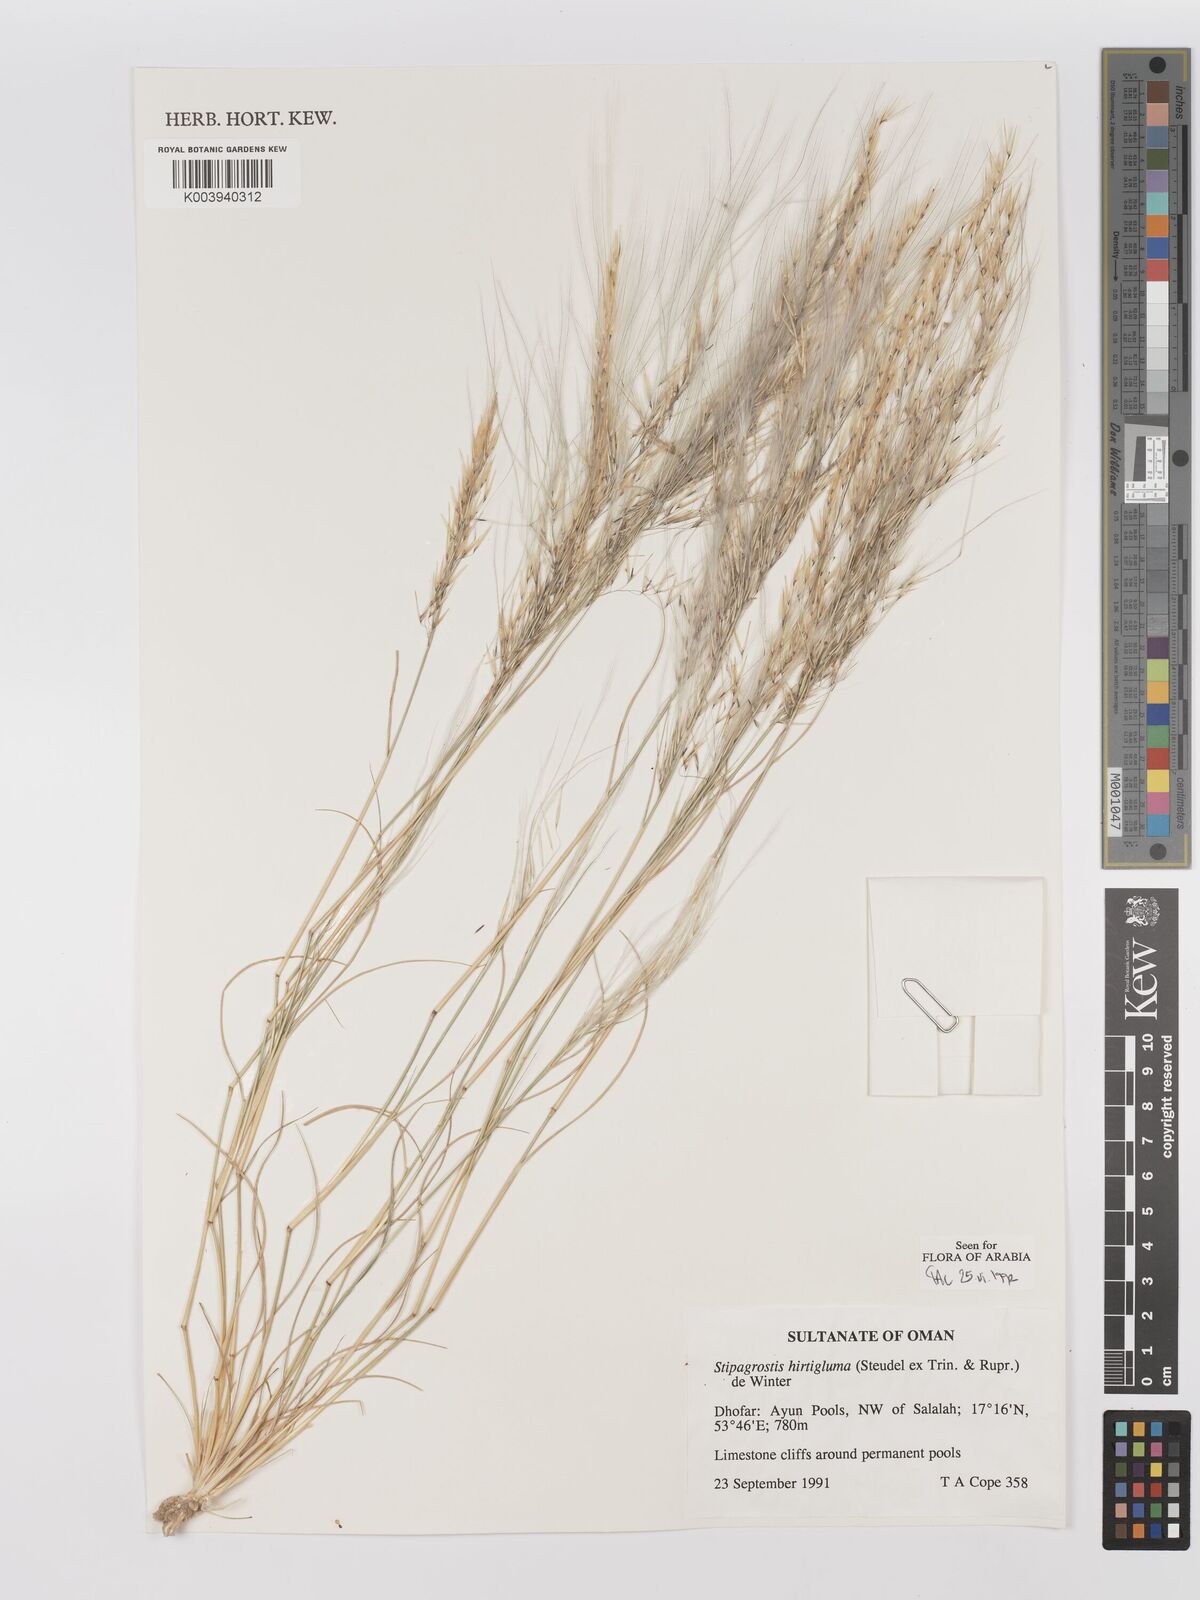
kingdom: Plantae
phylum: Tracheophyta
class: Liliopsida
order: Poales
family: Poaceae
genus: Stipagrostis
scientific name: Stipagrostis hirtigluma
